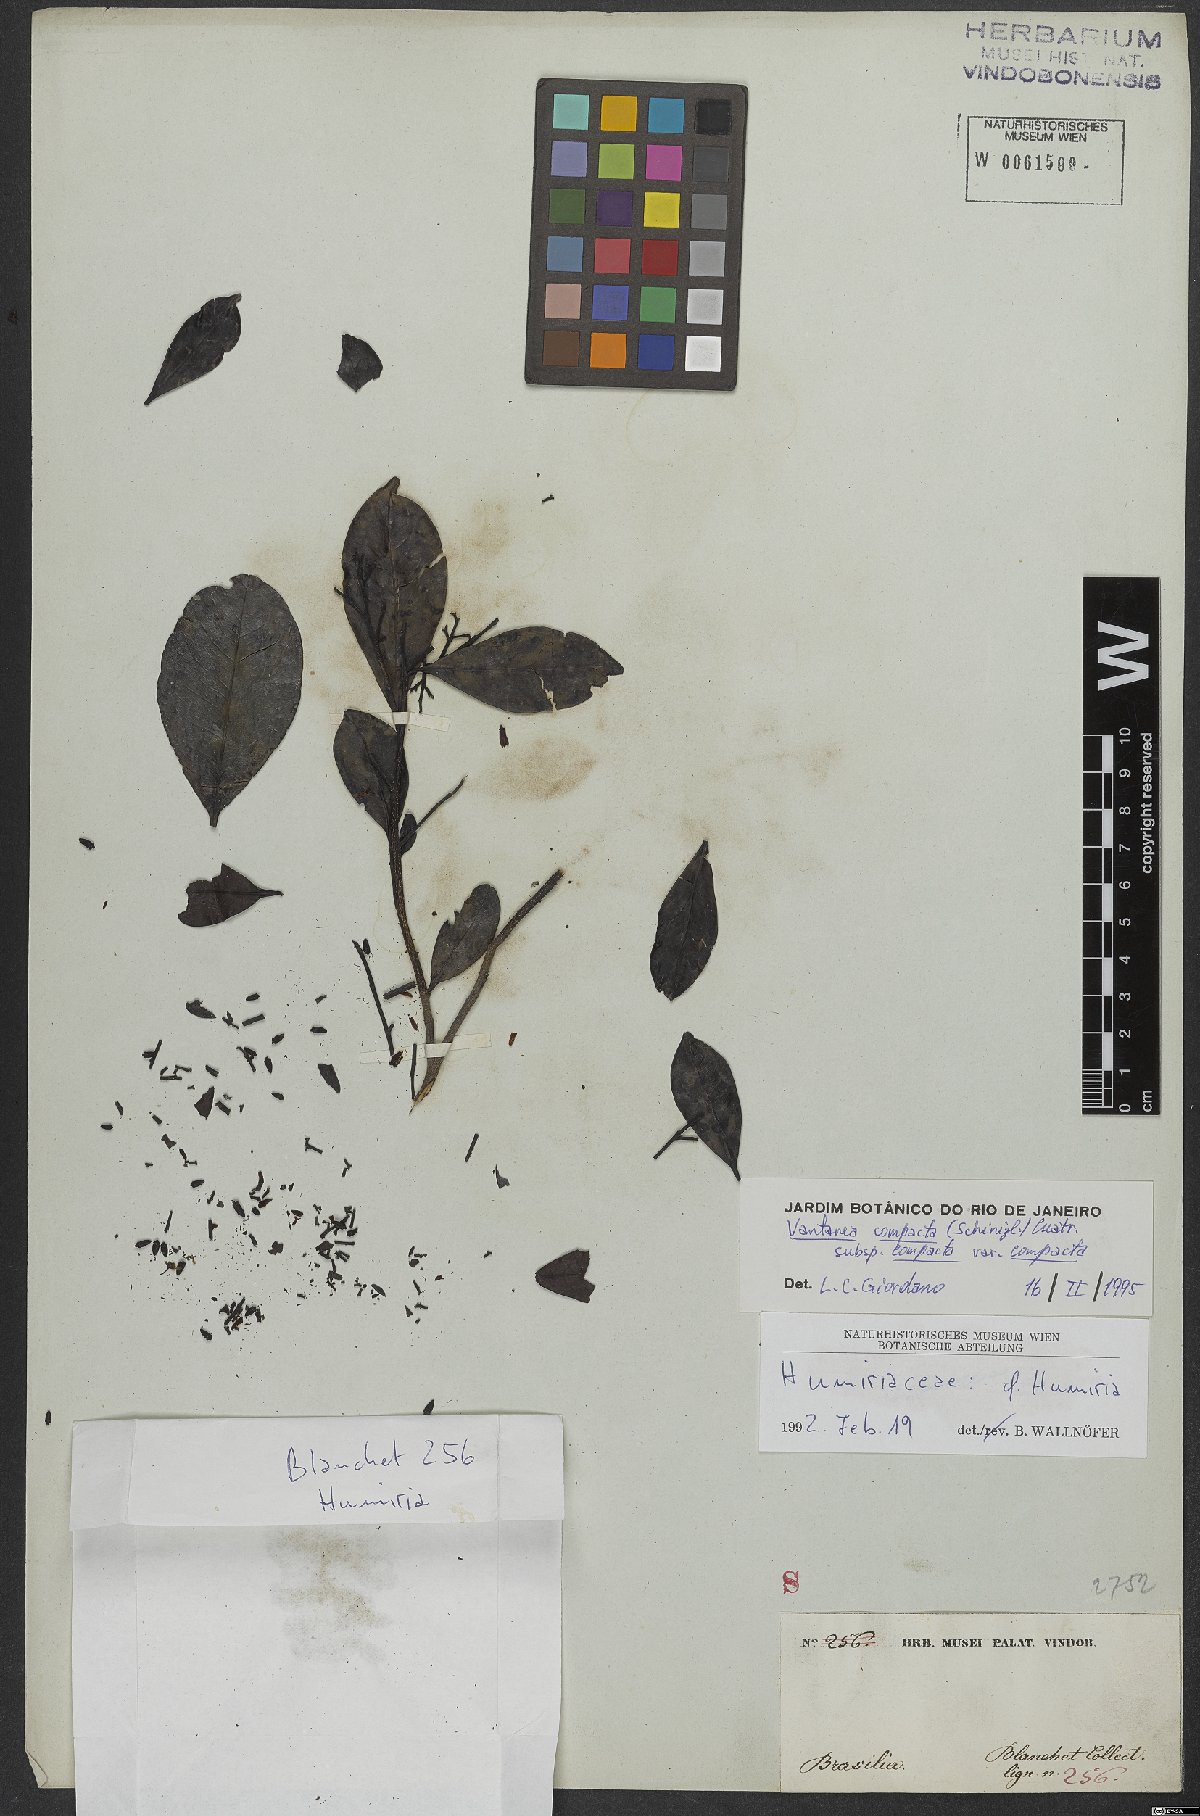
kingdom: Plantae
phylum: Tracheophyta
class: Magnoliopsida
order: Malpighiales
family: Humiriaceae
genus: Vantanea
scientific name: Vantanea compacta
